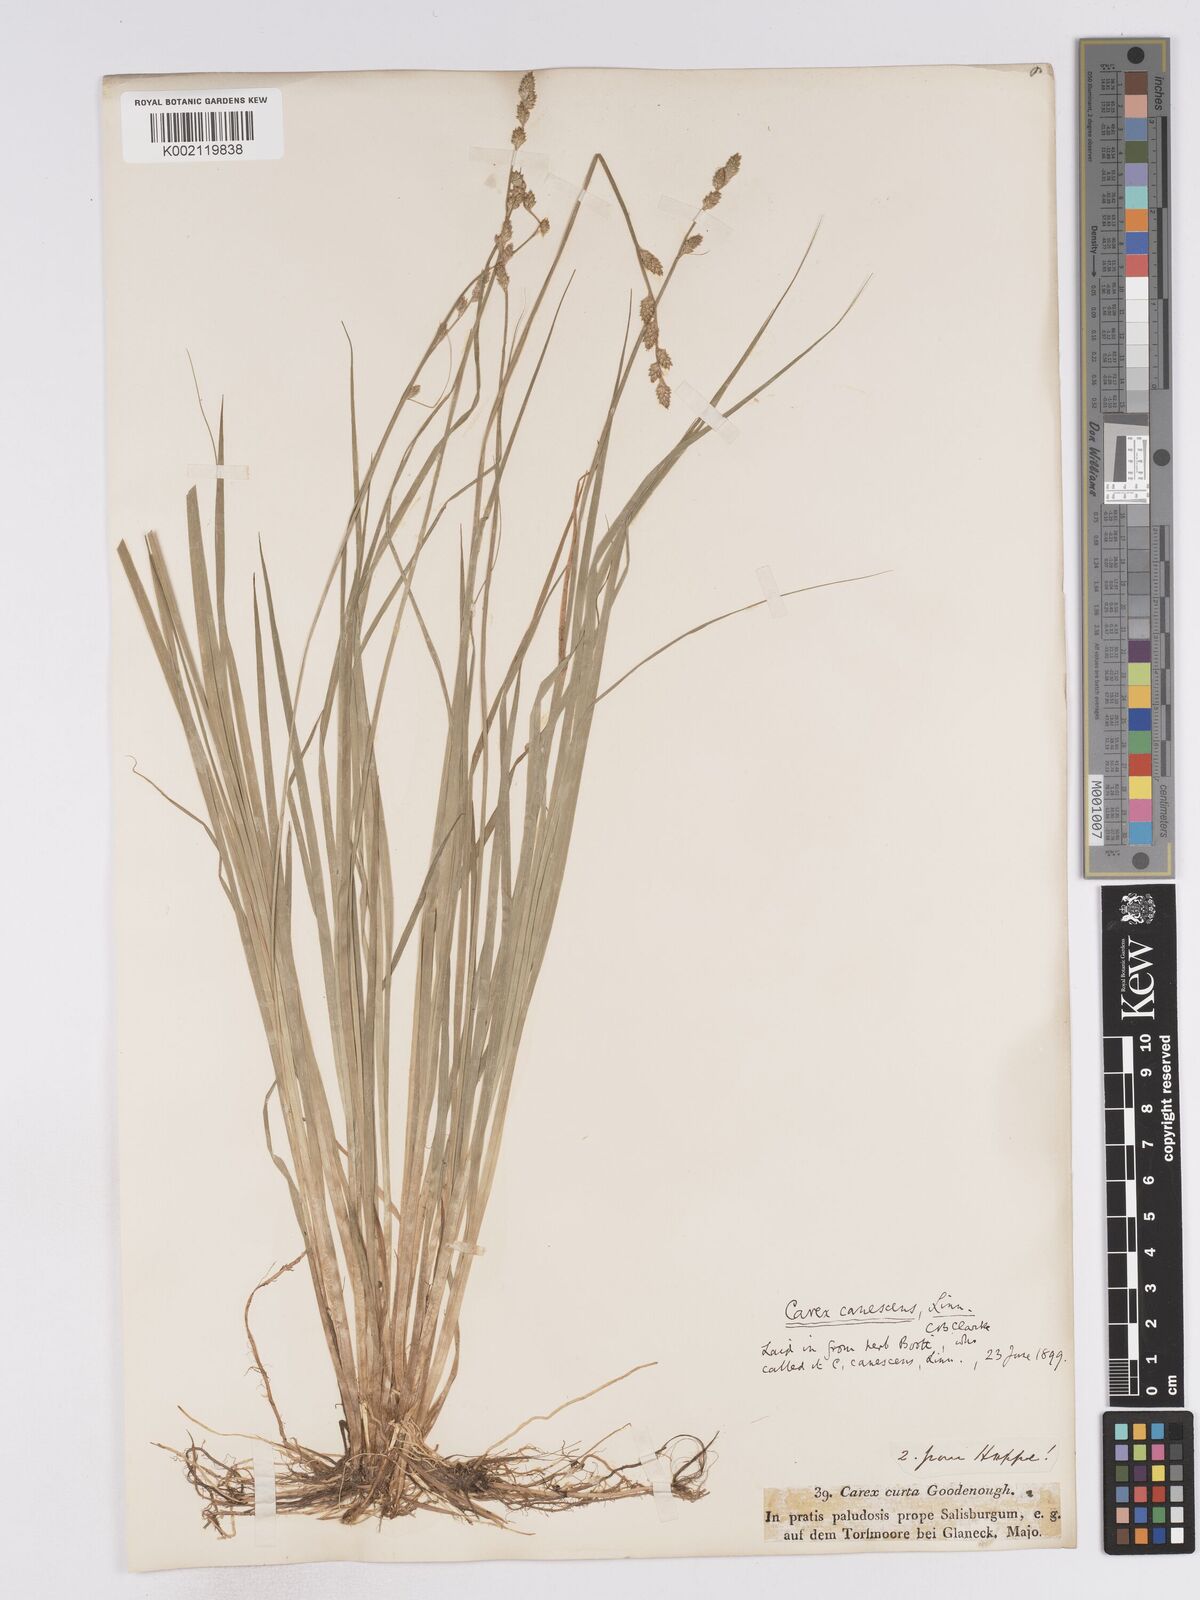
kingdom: Plantae
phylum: Tracheophyta
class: Liliopsida
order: Poales
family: Cyperaceae
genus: Carex
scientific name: Carex curta
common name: White sedge
